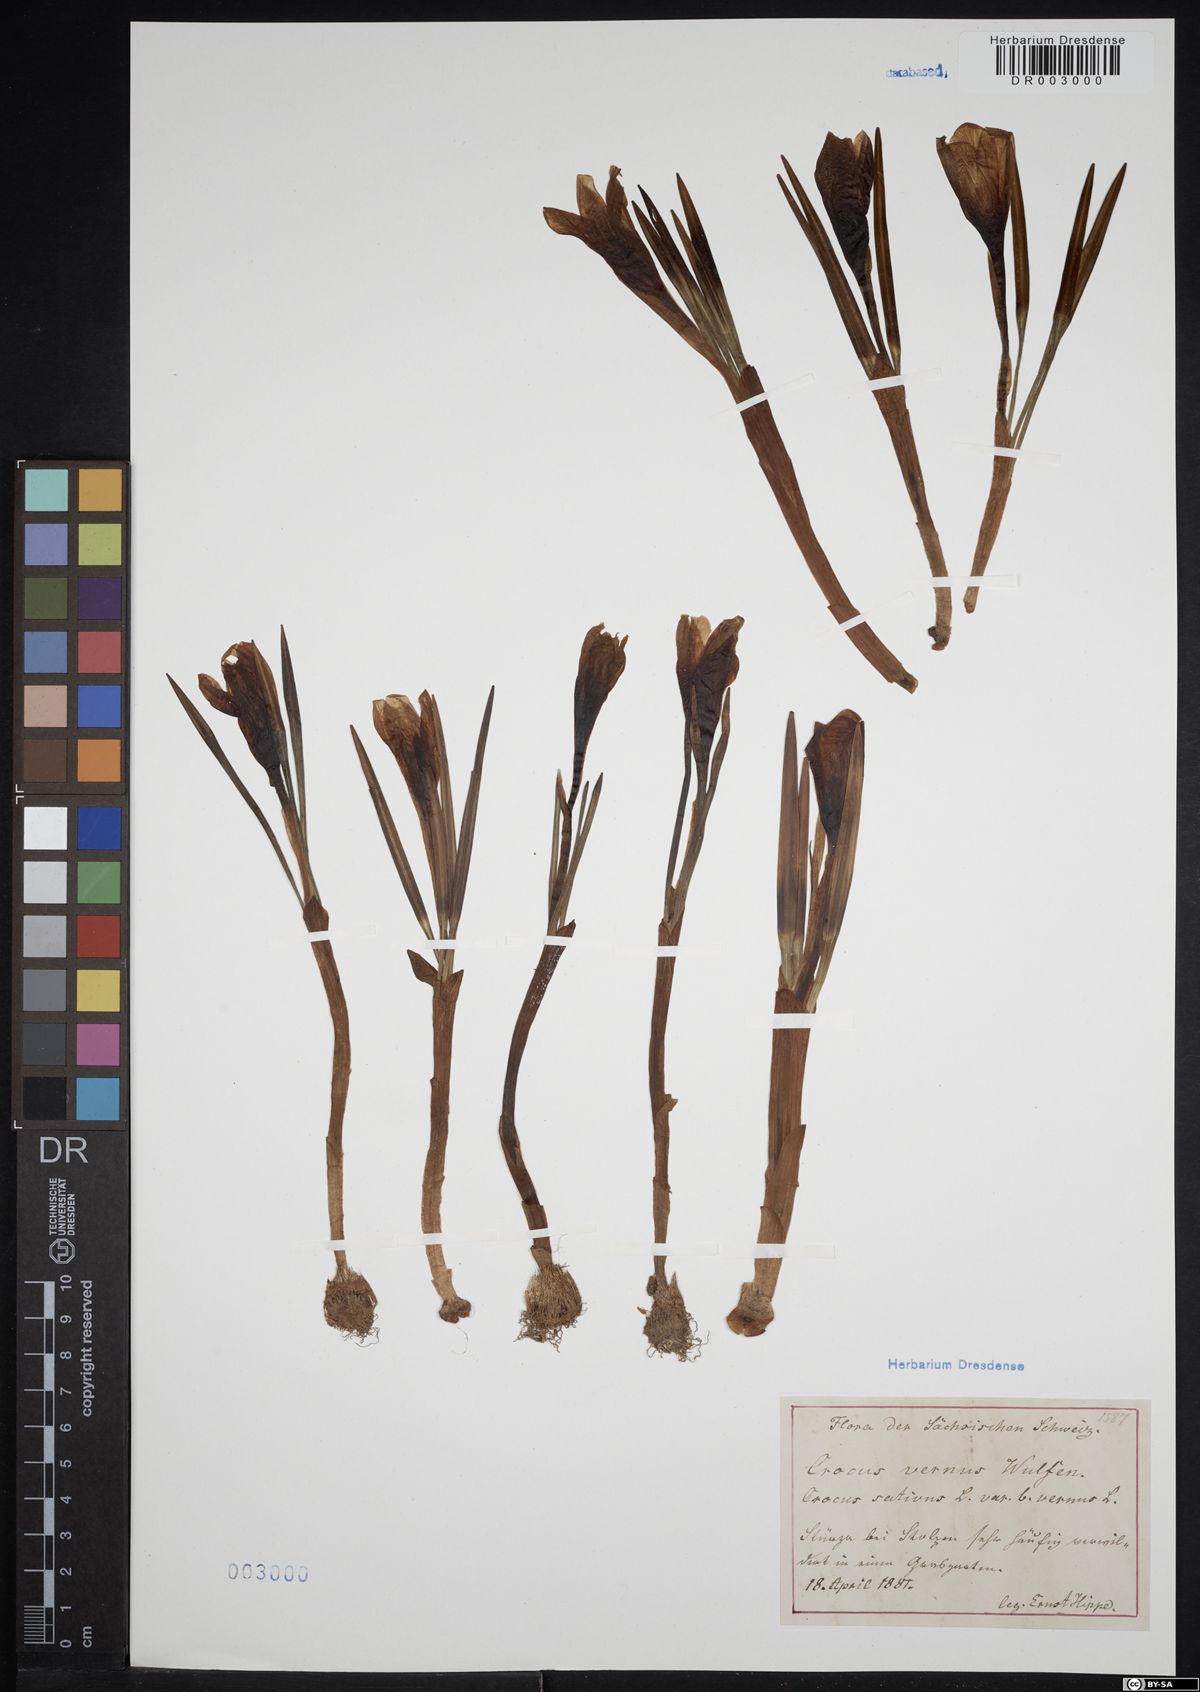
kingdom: Plantae
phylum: Tracheophyta
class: Liliopsida
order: Asparagales
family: Iridaceae
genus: Crocus
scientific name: Crocus vernus
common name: Spring crocus
